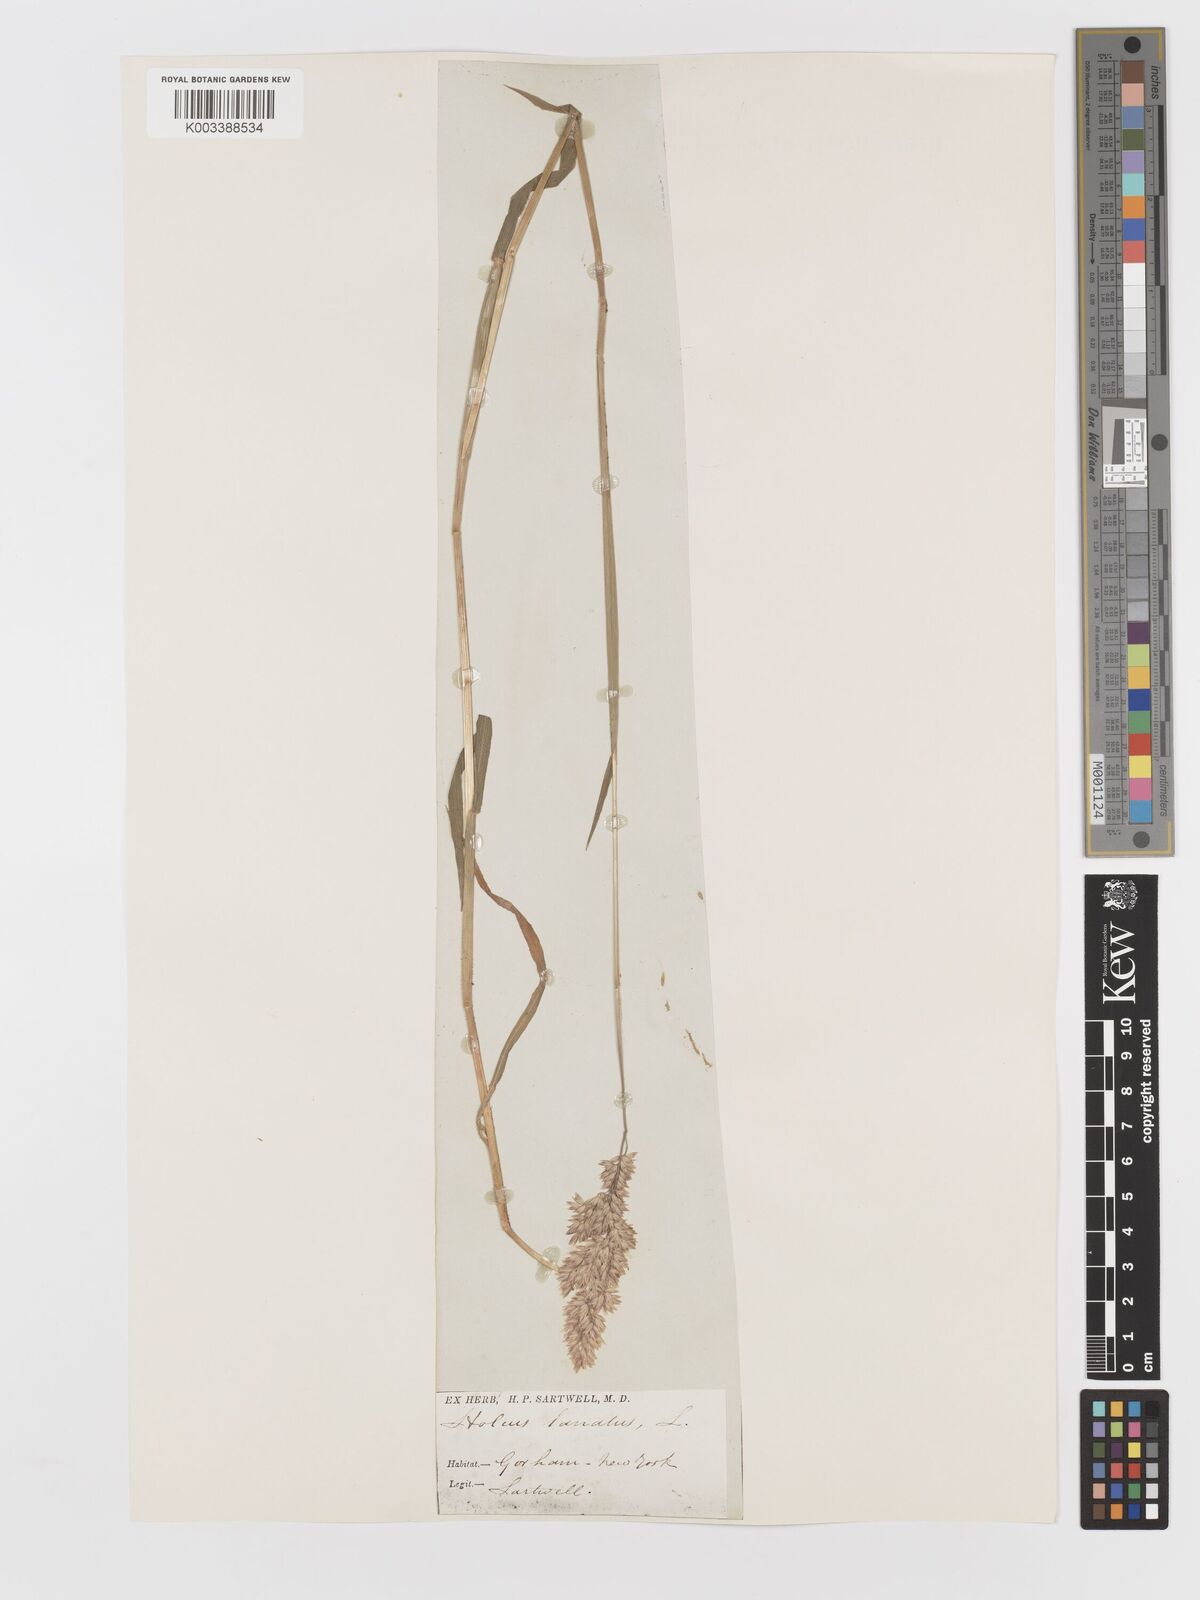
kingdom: Plantae
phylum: Tracheophyta
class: Liliopsida
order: Poales
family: Poaceae
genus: Holcus
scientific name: Holcus lanatus
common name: Yorkshire-fog
